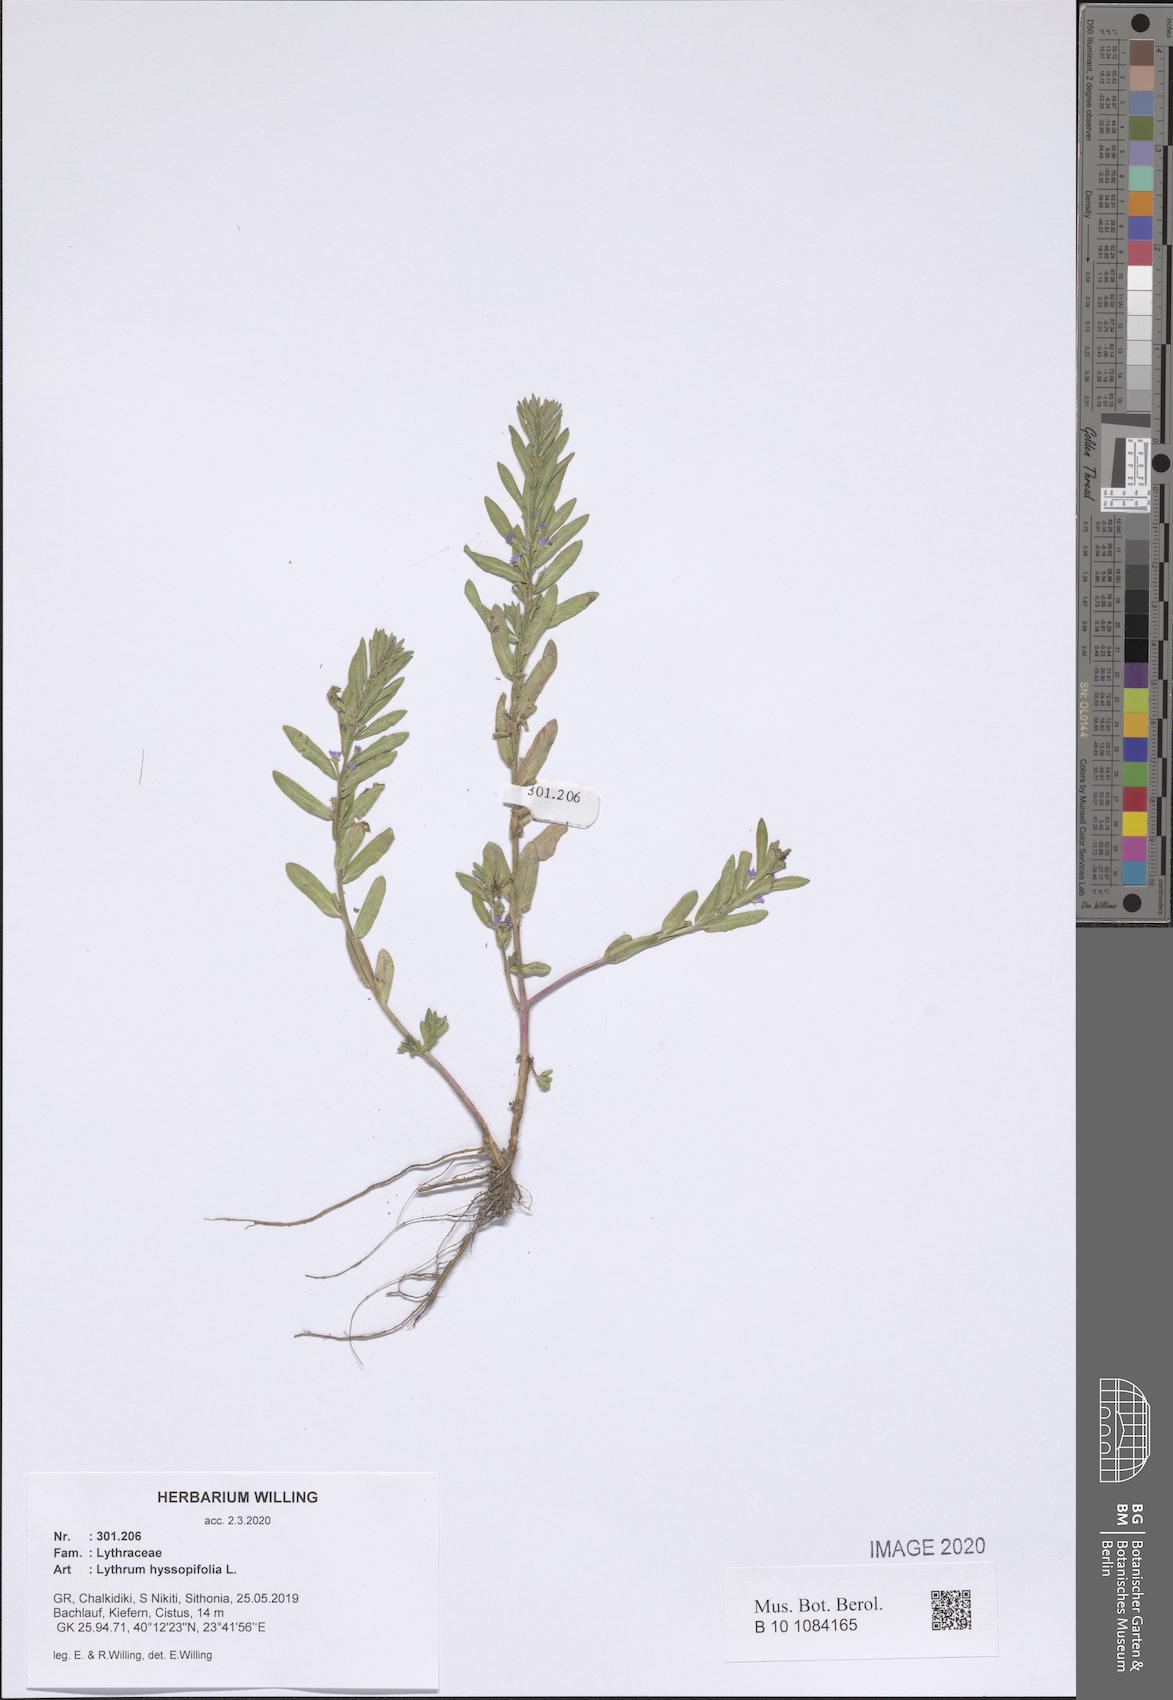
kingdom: Plantae
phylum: Tracheophyta
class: Magnoliopsida
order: Myrtales
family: Lythraceae
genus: Lythrum
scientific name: Lythrum hyssopifolia
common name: Grass-poly
